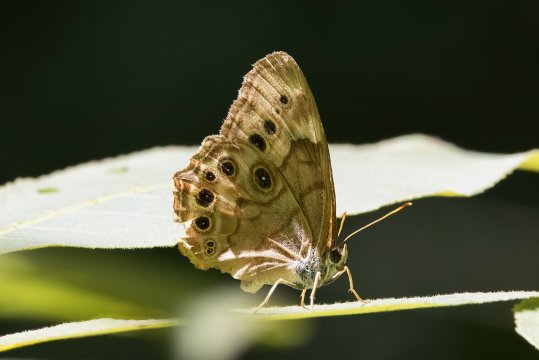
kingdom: Animalia
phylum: Arthropoda
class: Insecta
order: Lepidoptera
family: Nymphalidae
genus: Lethe
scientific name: Lethe anthedon
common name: Northern Pearly-Eye
